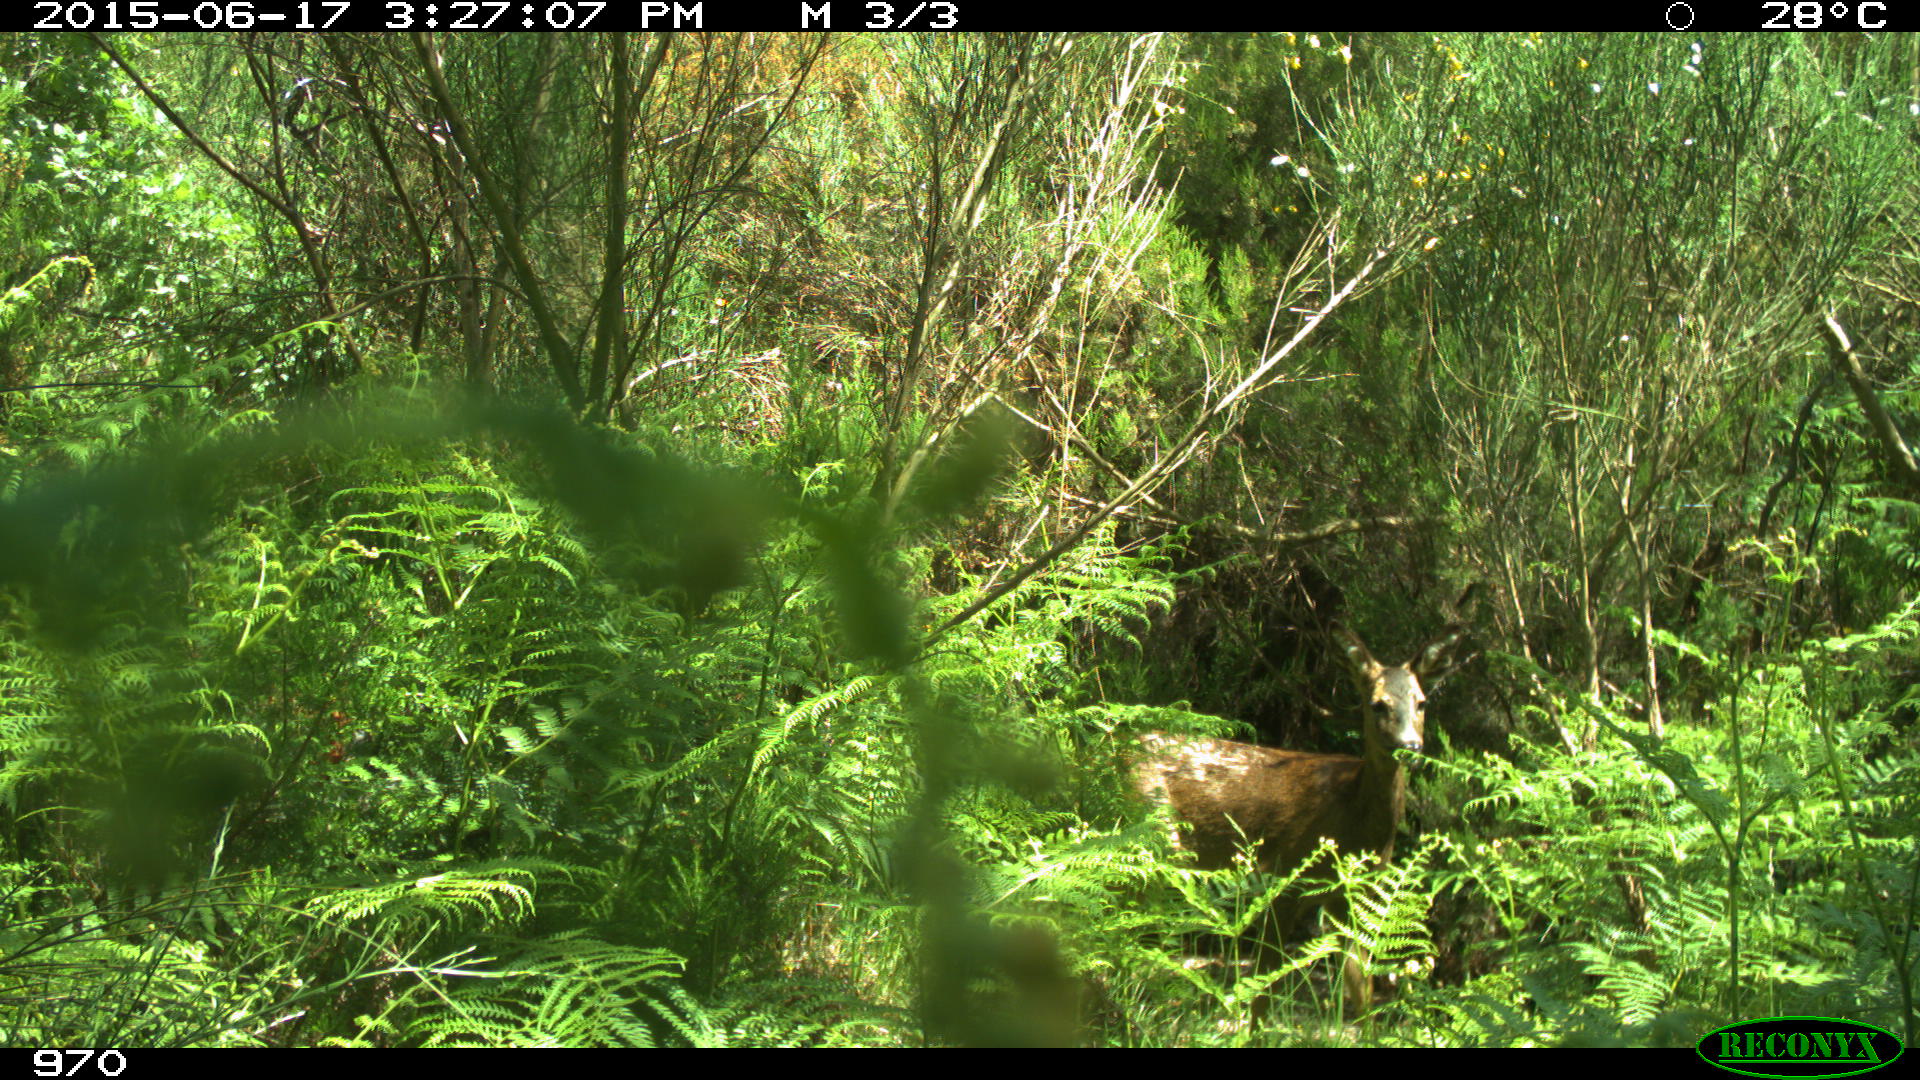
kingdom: Animalia
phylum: Chordata
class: Mammalia
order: Artiodactyla
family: Cervidae
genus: Capreolus
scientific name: Capreolus capreolus
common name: Western roe deer
